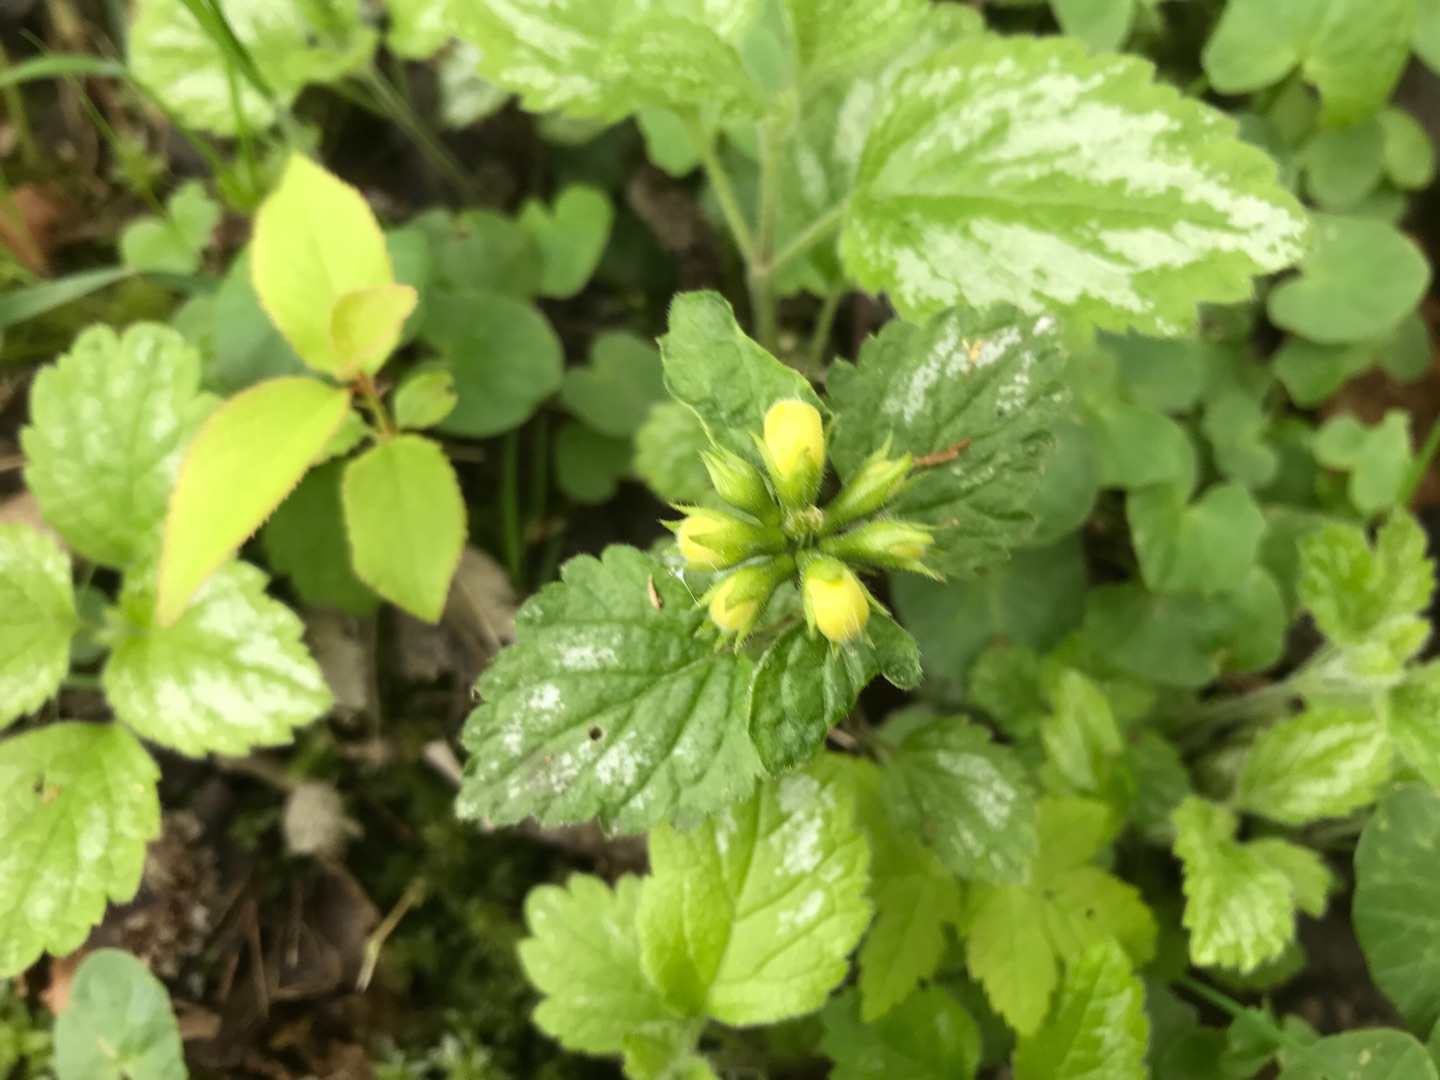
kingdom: Plantae
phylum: Tracheophyta
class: Magnoliopsida
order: Lamiales
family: Lamiaceae
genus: Lamium
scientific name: Lamium galeobdolon
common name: Have-guldnælde
